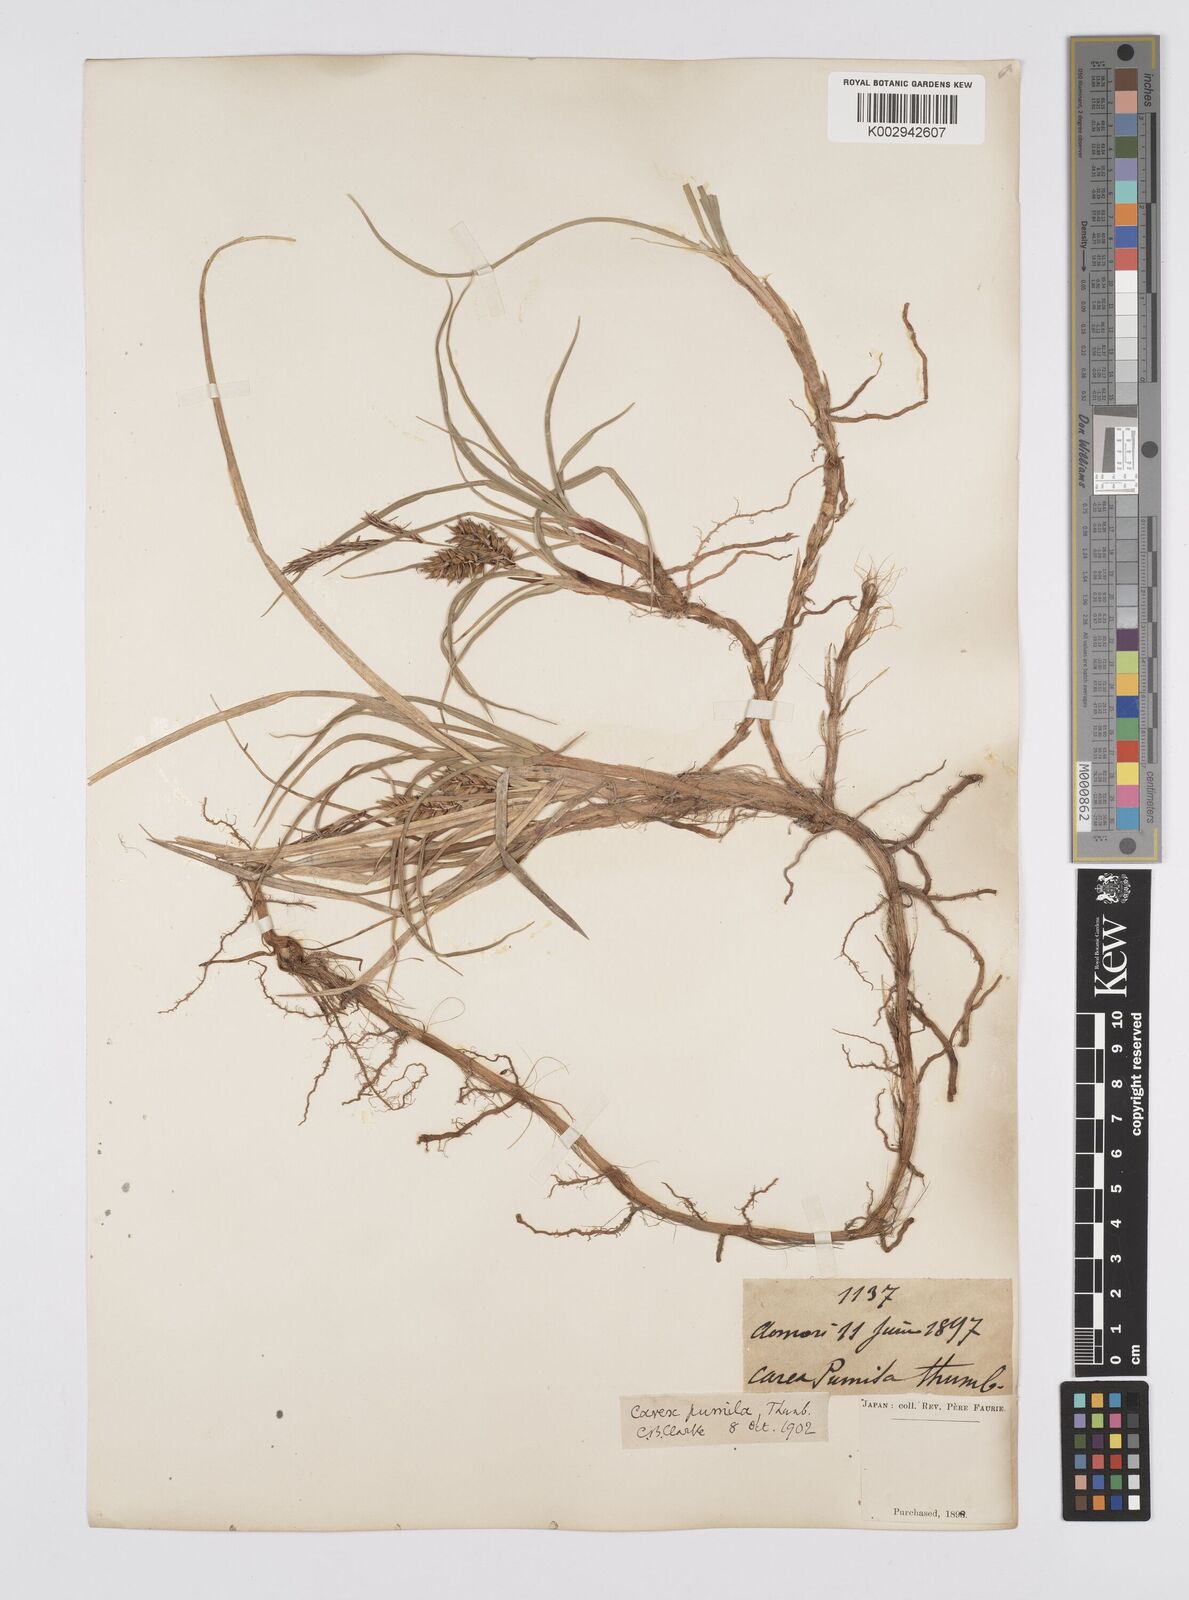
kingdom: Plantae
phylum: Tracheophyta
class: Liliopsida
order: Poales
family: Cyperaceae
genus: Carex
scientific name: Carex pumila
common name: Dwarf sedge
